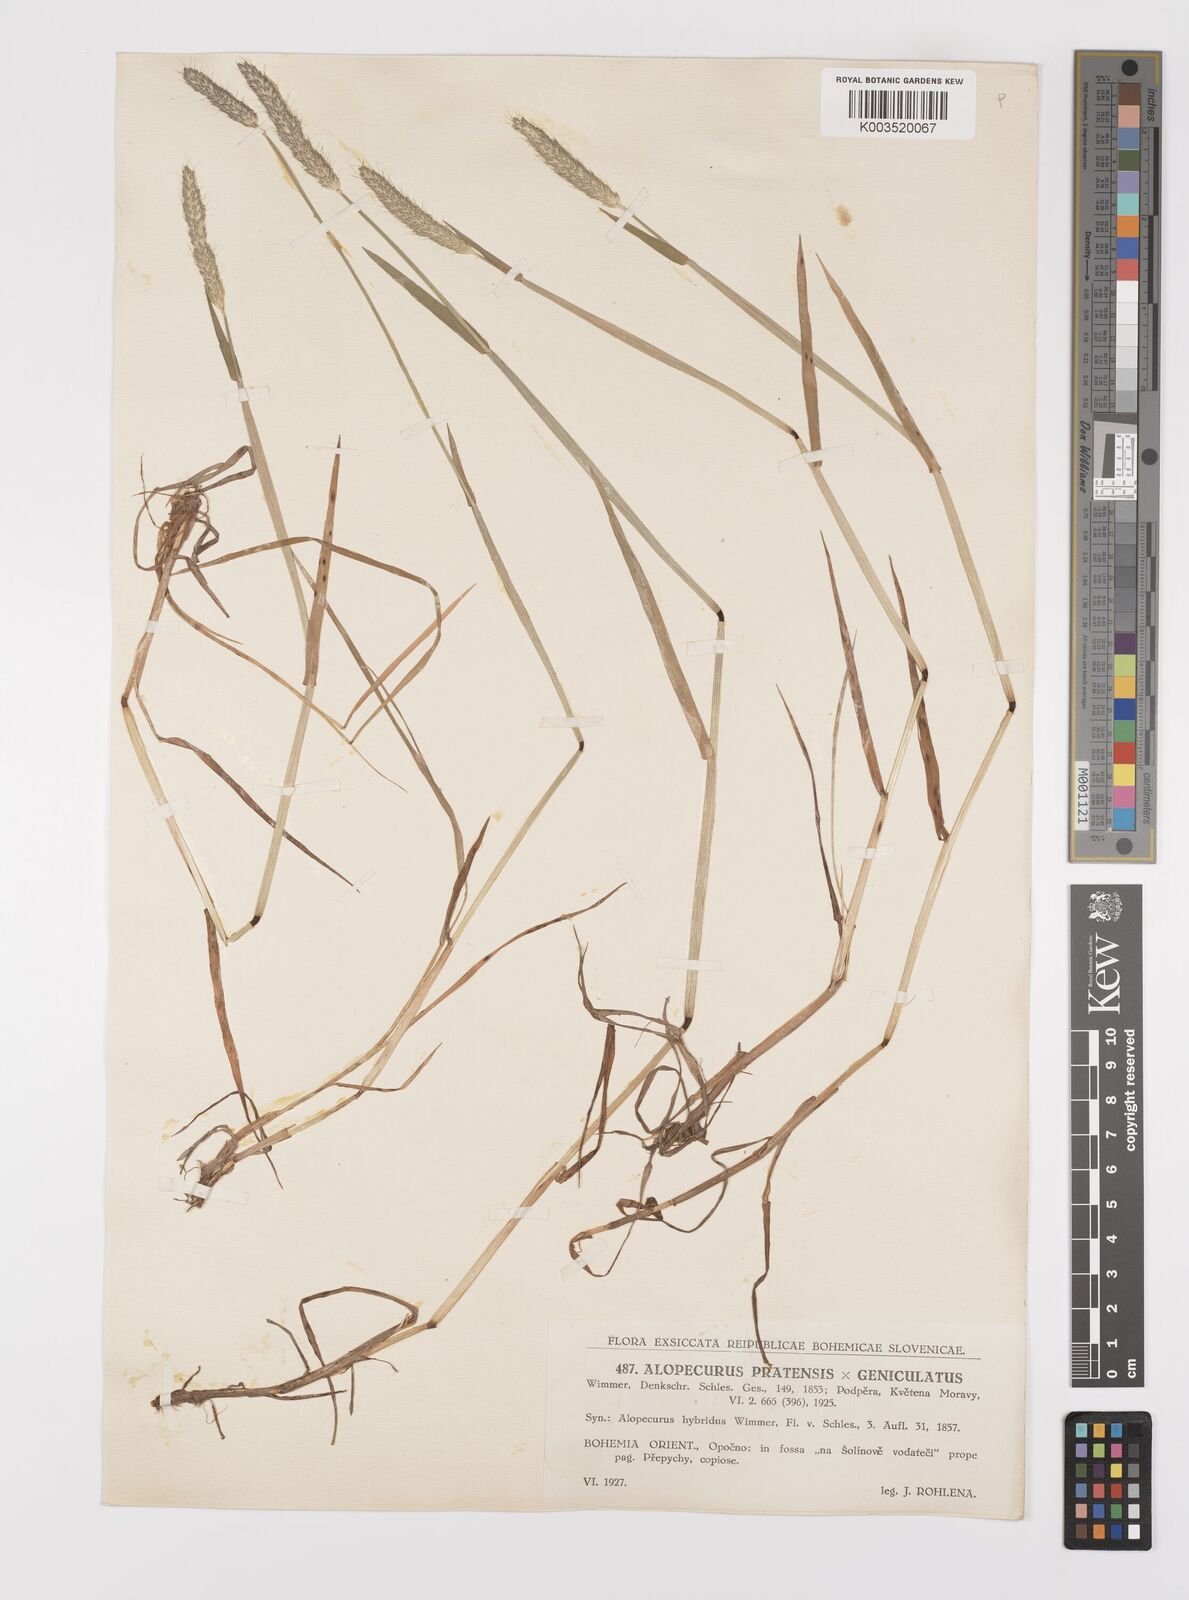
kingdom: Plantae
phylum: Tracheophyta
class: Liliopsida
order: Poales
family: Poaceae
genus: Alopecurus
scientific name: Alopecurus brachystylus
